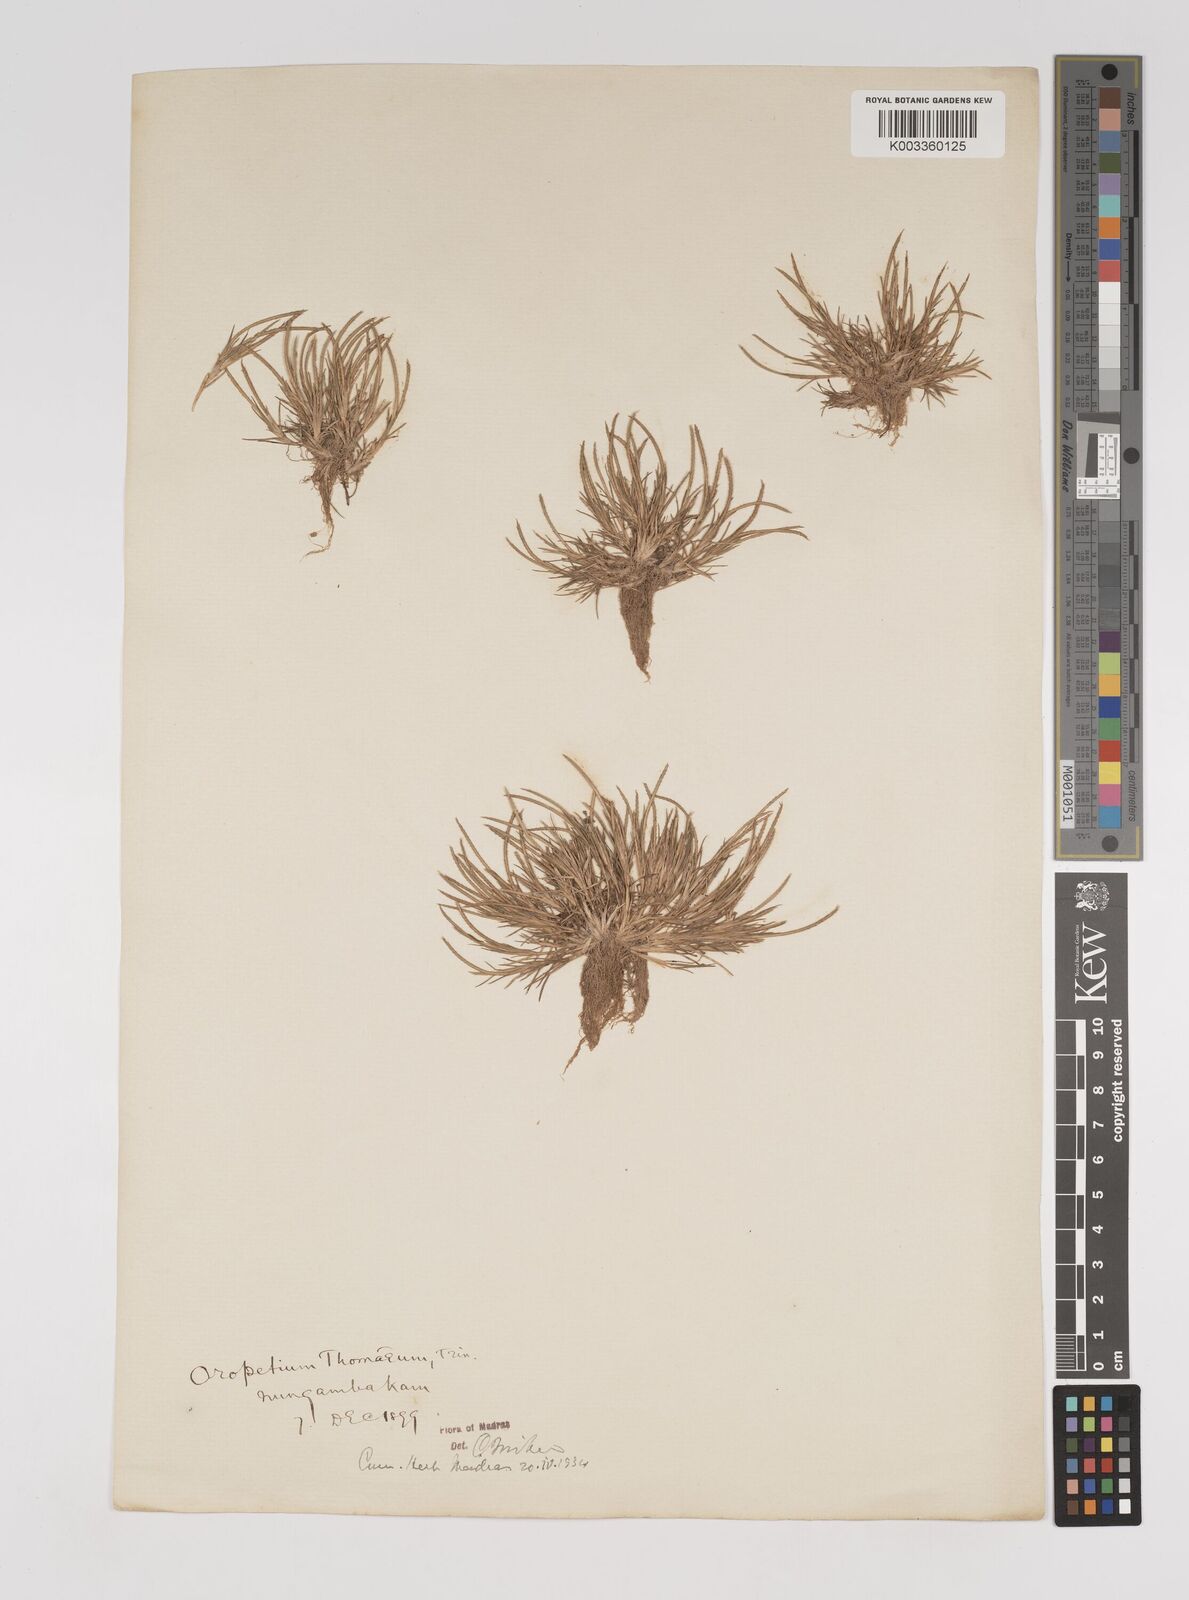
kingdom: Plantae
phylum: Tracheophyta
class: Liliopsida
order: Poales
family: Poaceae
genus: Oropetium
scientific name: Oropetium thomaeum
